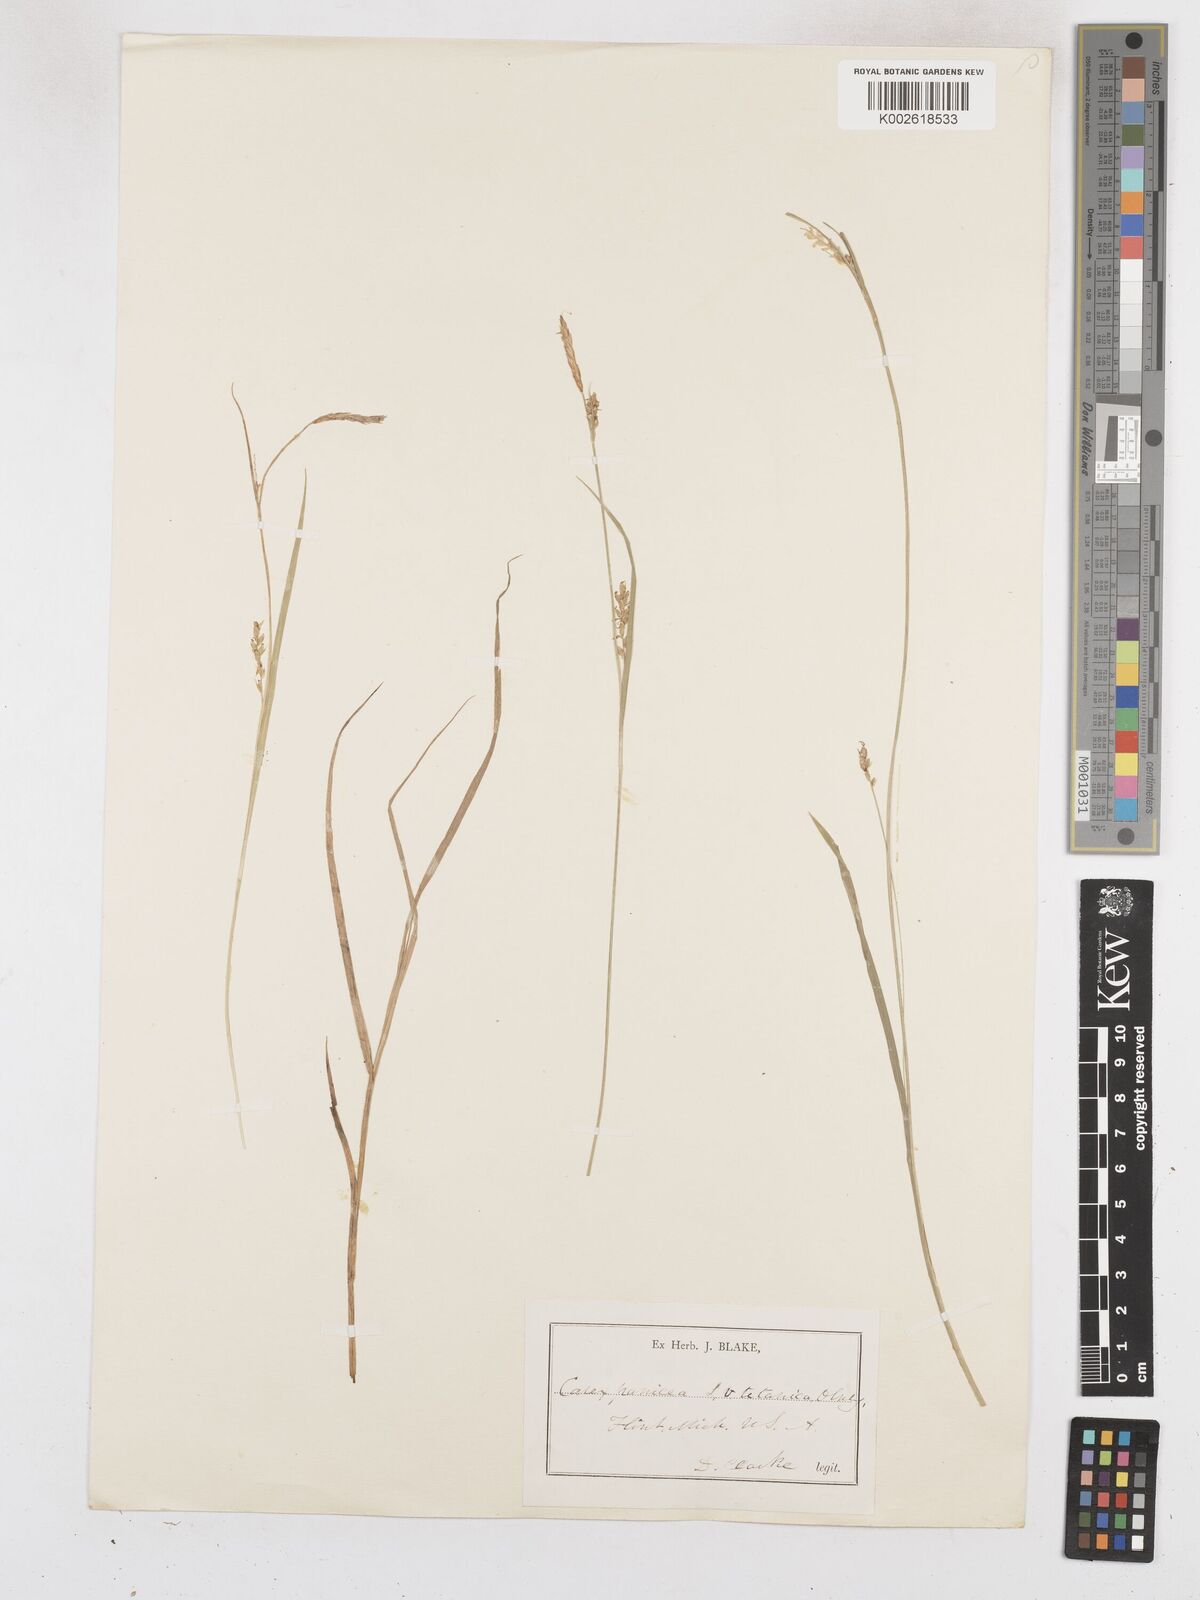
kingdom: Plantae
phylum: Tracheophyta
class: Liliopsida
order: Poales
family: Cyperaceae
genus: Carex
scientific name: Carex tetanica
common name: Rigid sedge
